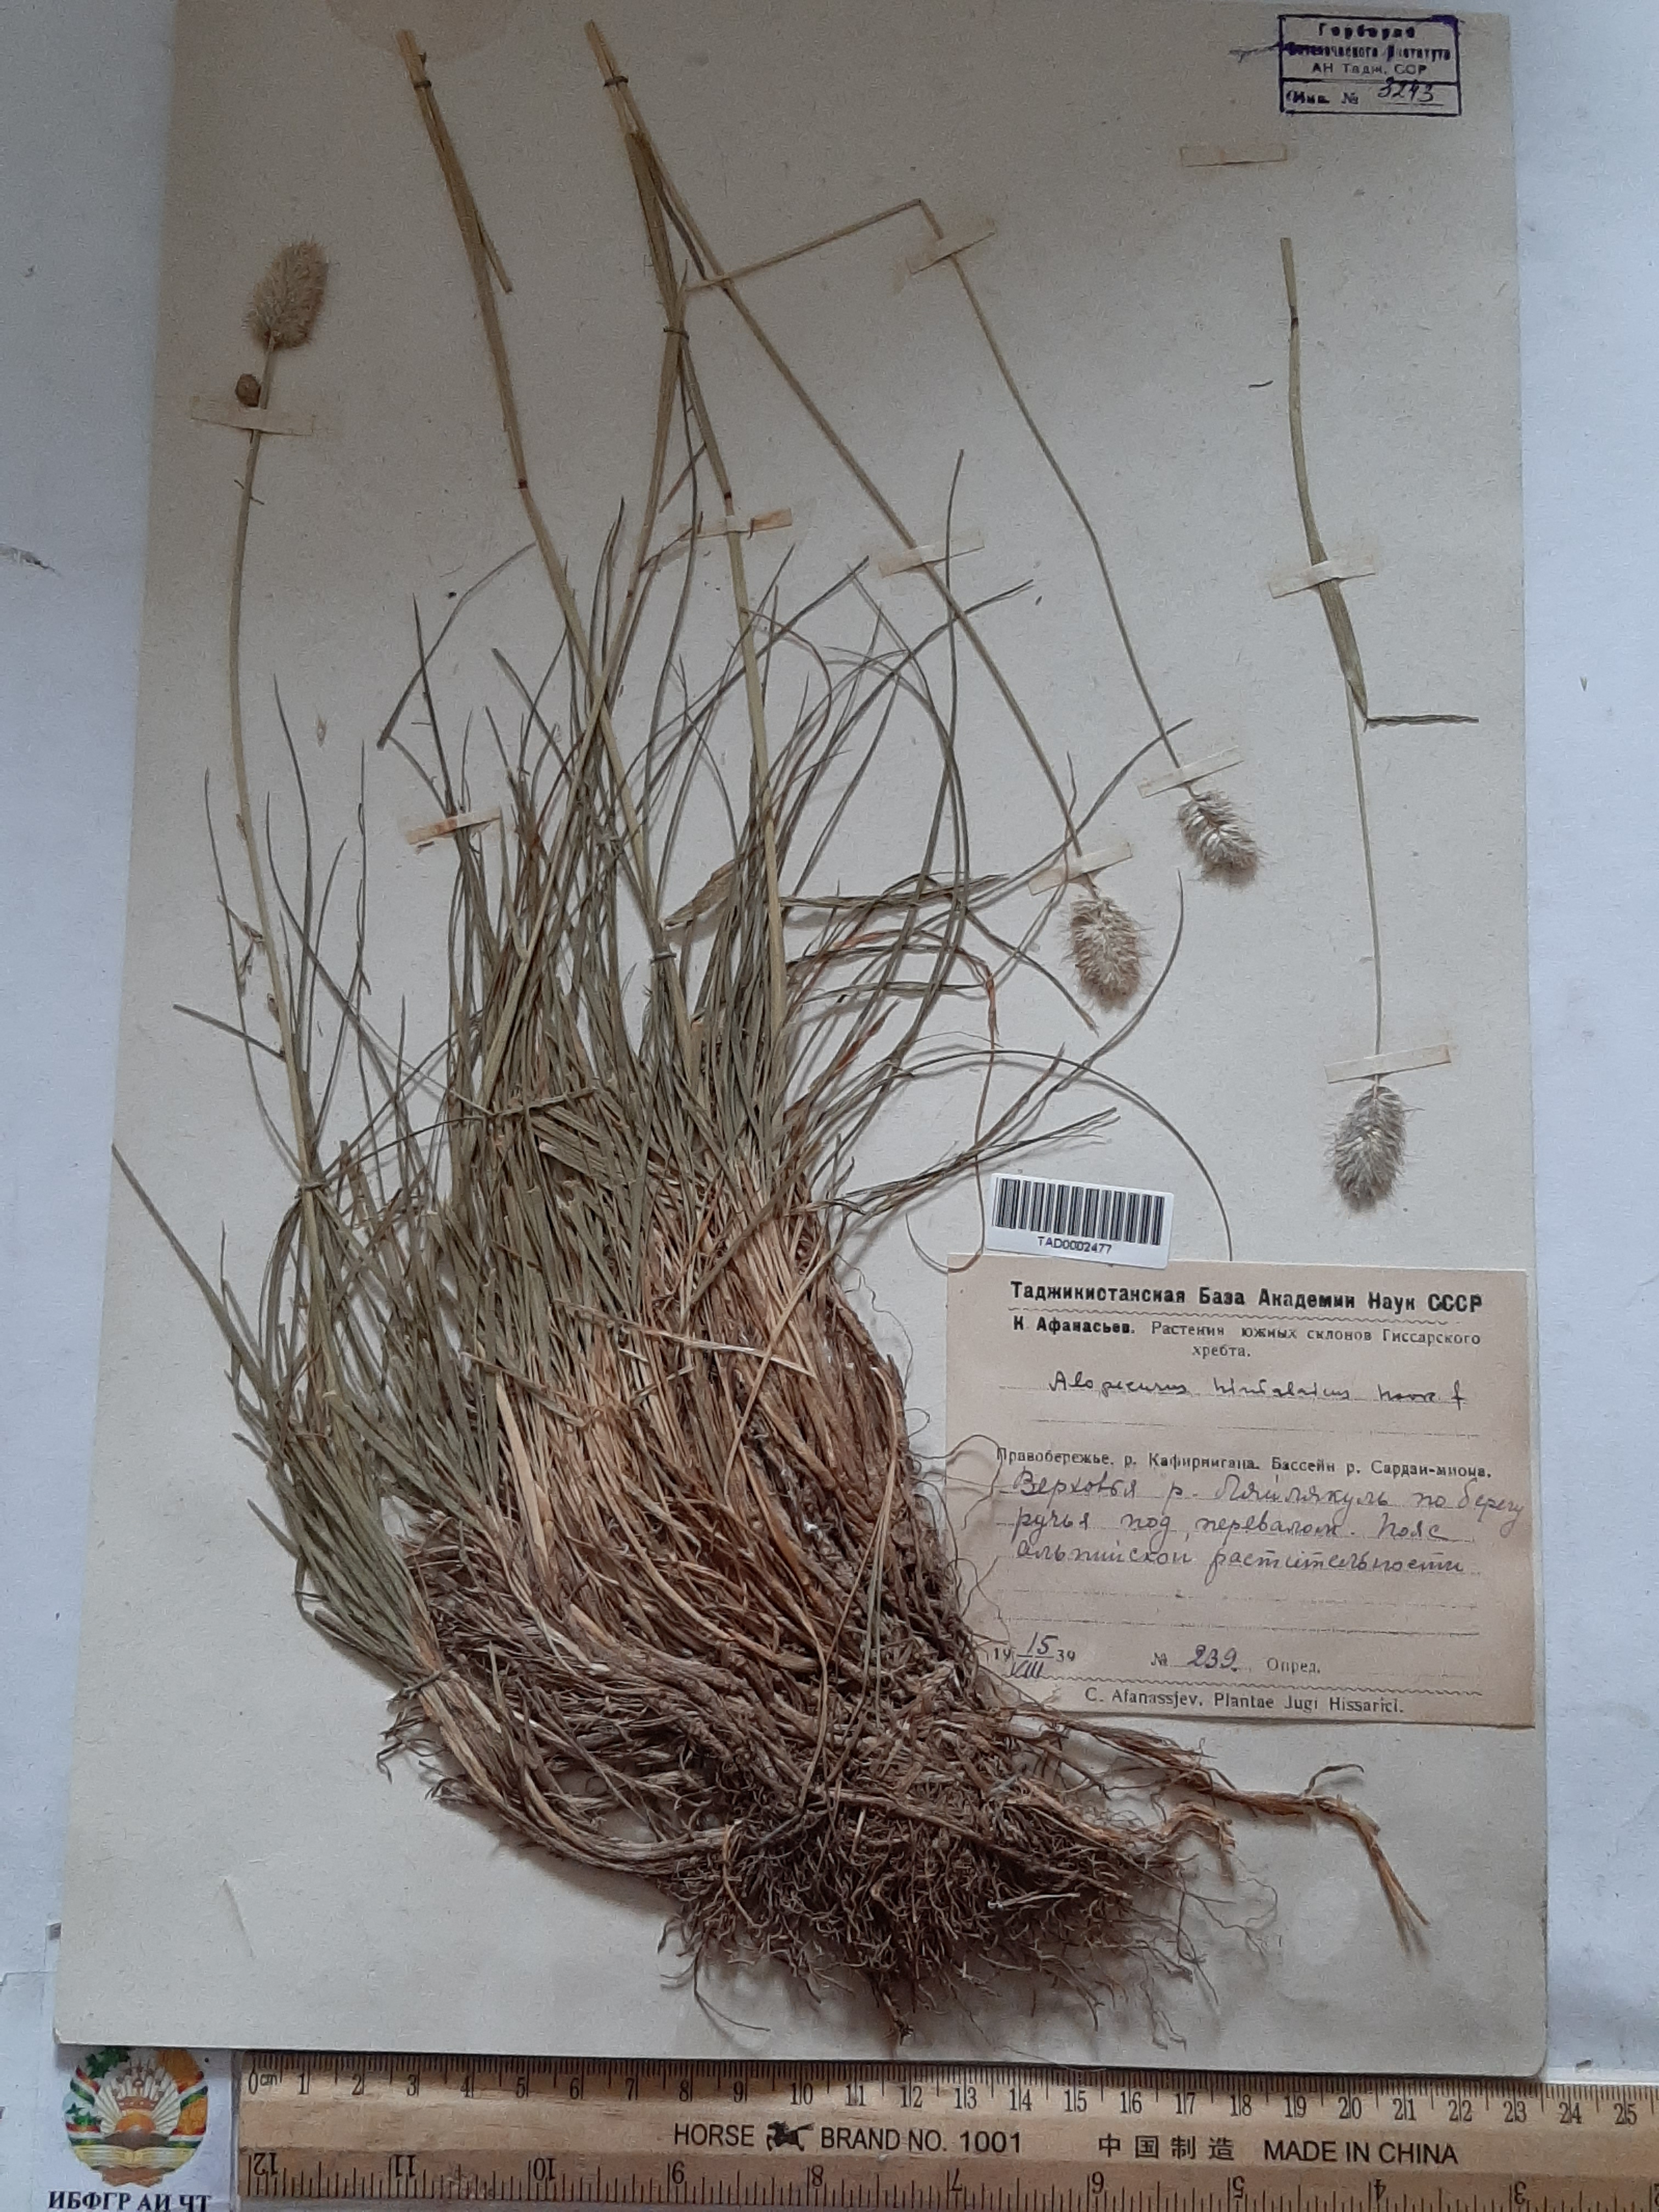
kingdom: Plantae
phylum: Tracheophyta
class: Liliopsida
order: Poales
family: Poaceae
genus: Alopecurus
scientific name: Alopecurus himalaicus
